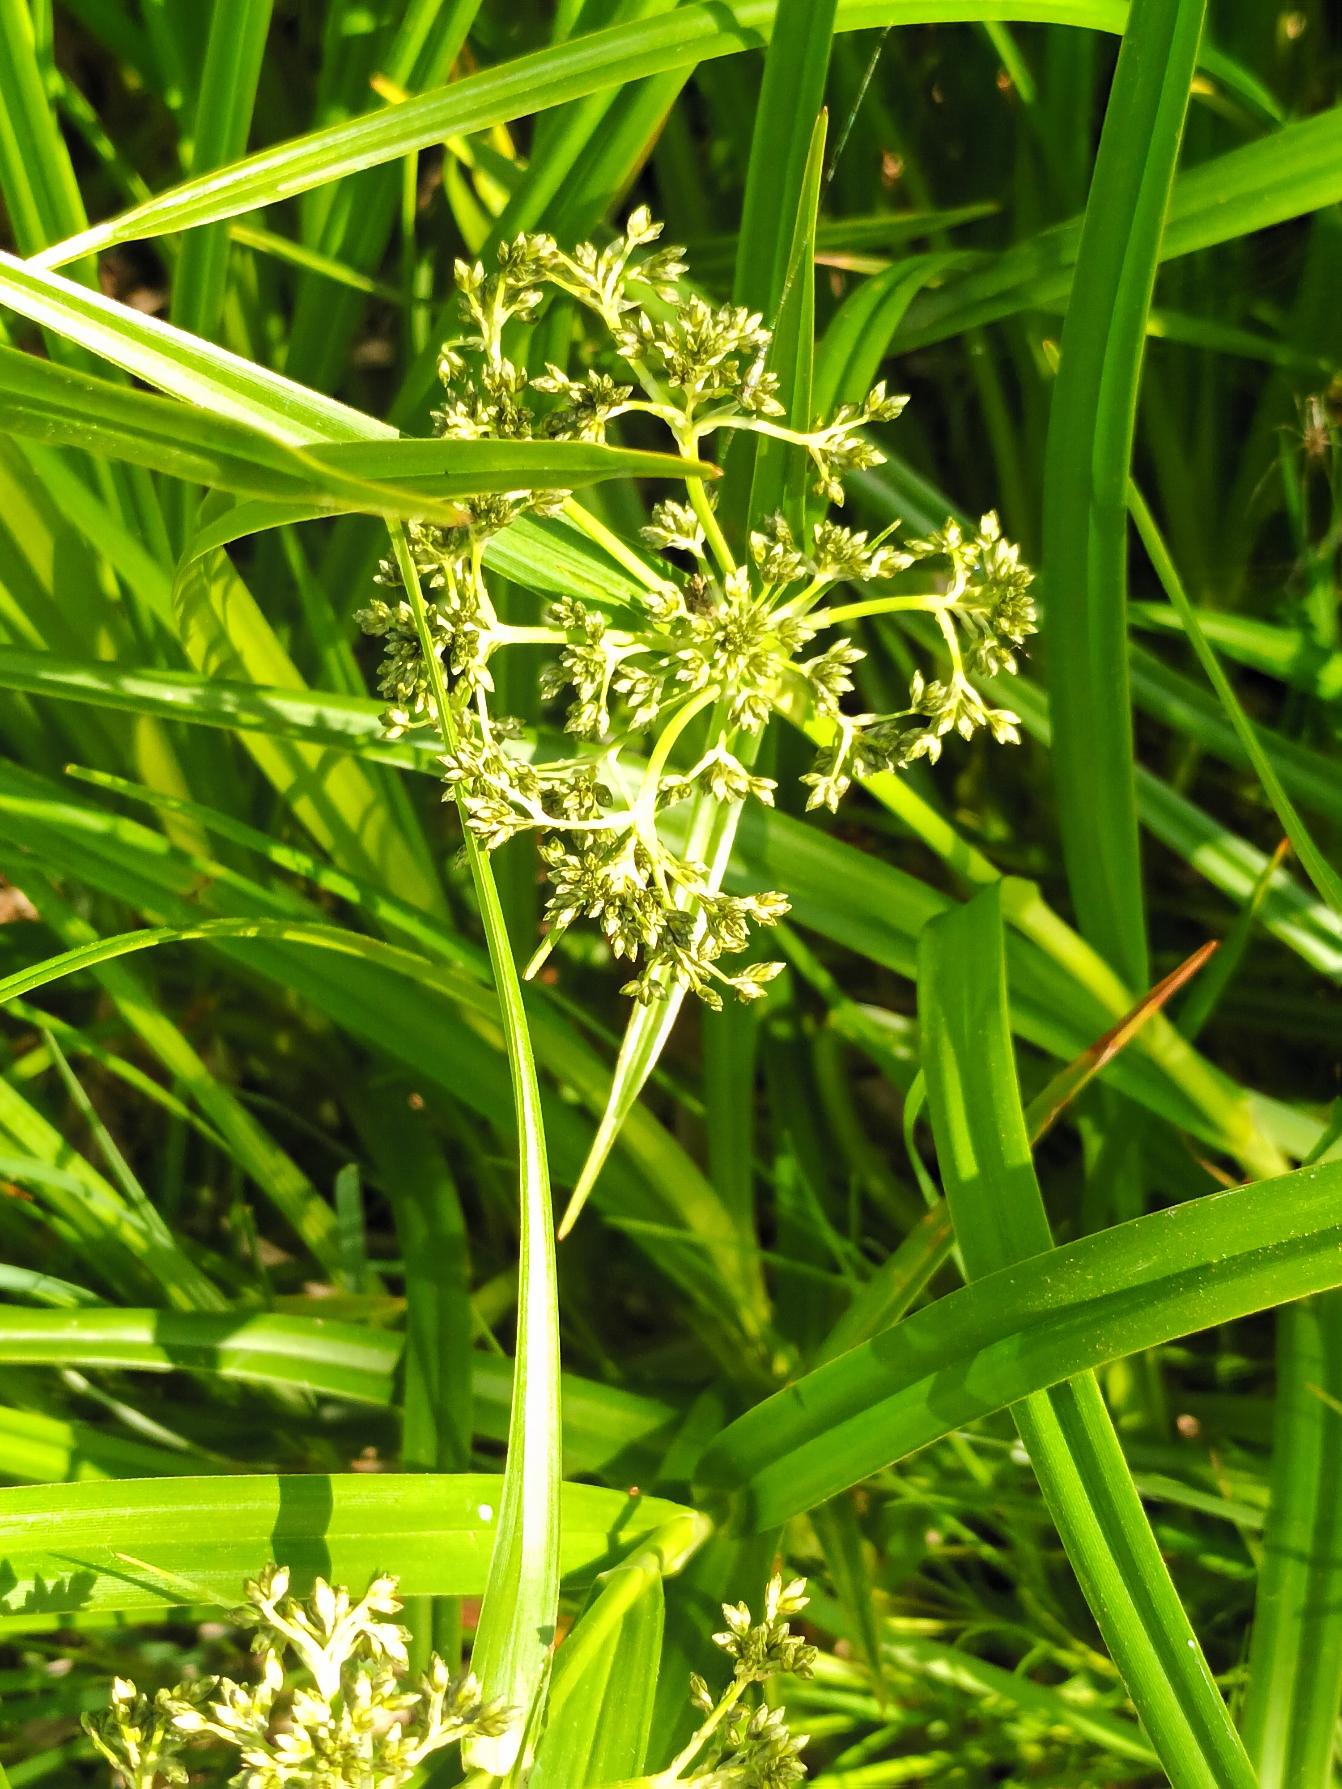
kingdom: Plantae
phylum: Tracheophyta
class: Liliopsida
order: Poales
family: Cyperaceae
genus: Scirpus
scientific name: Scirpus sylvaticus
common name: Skov-kogleaks
